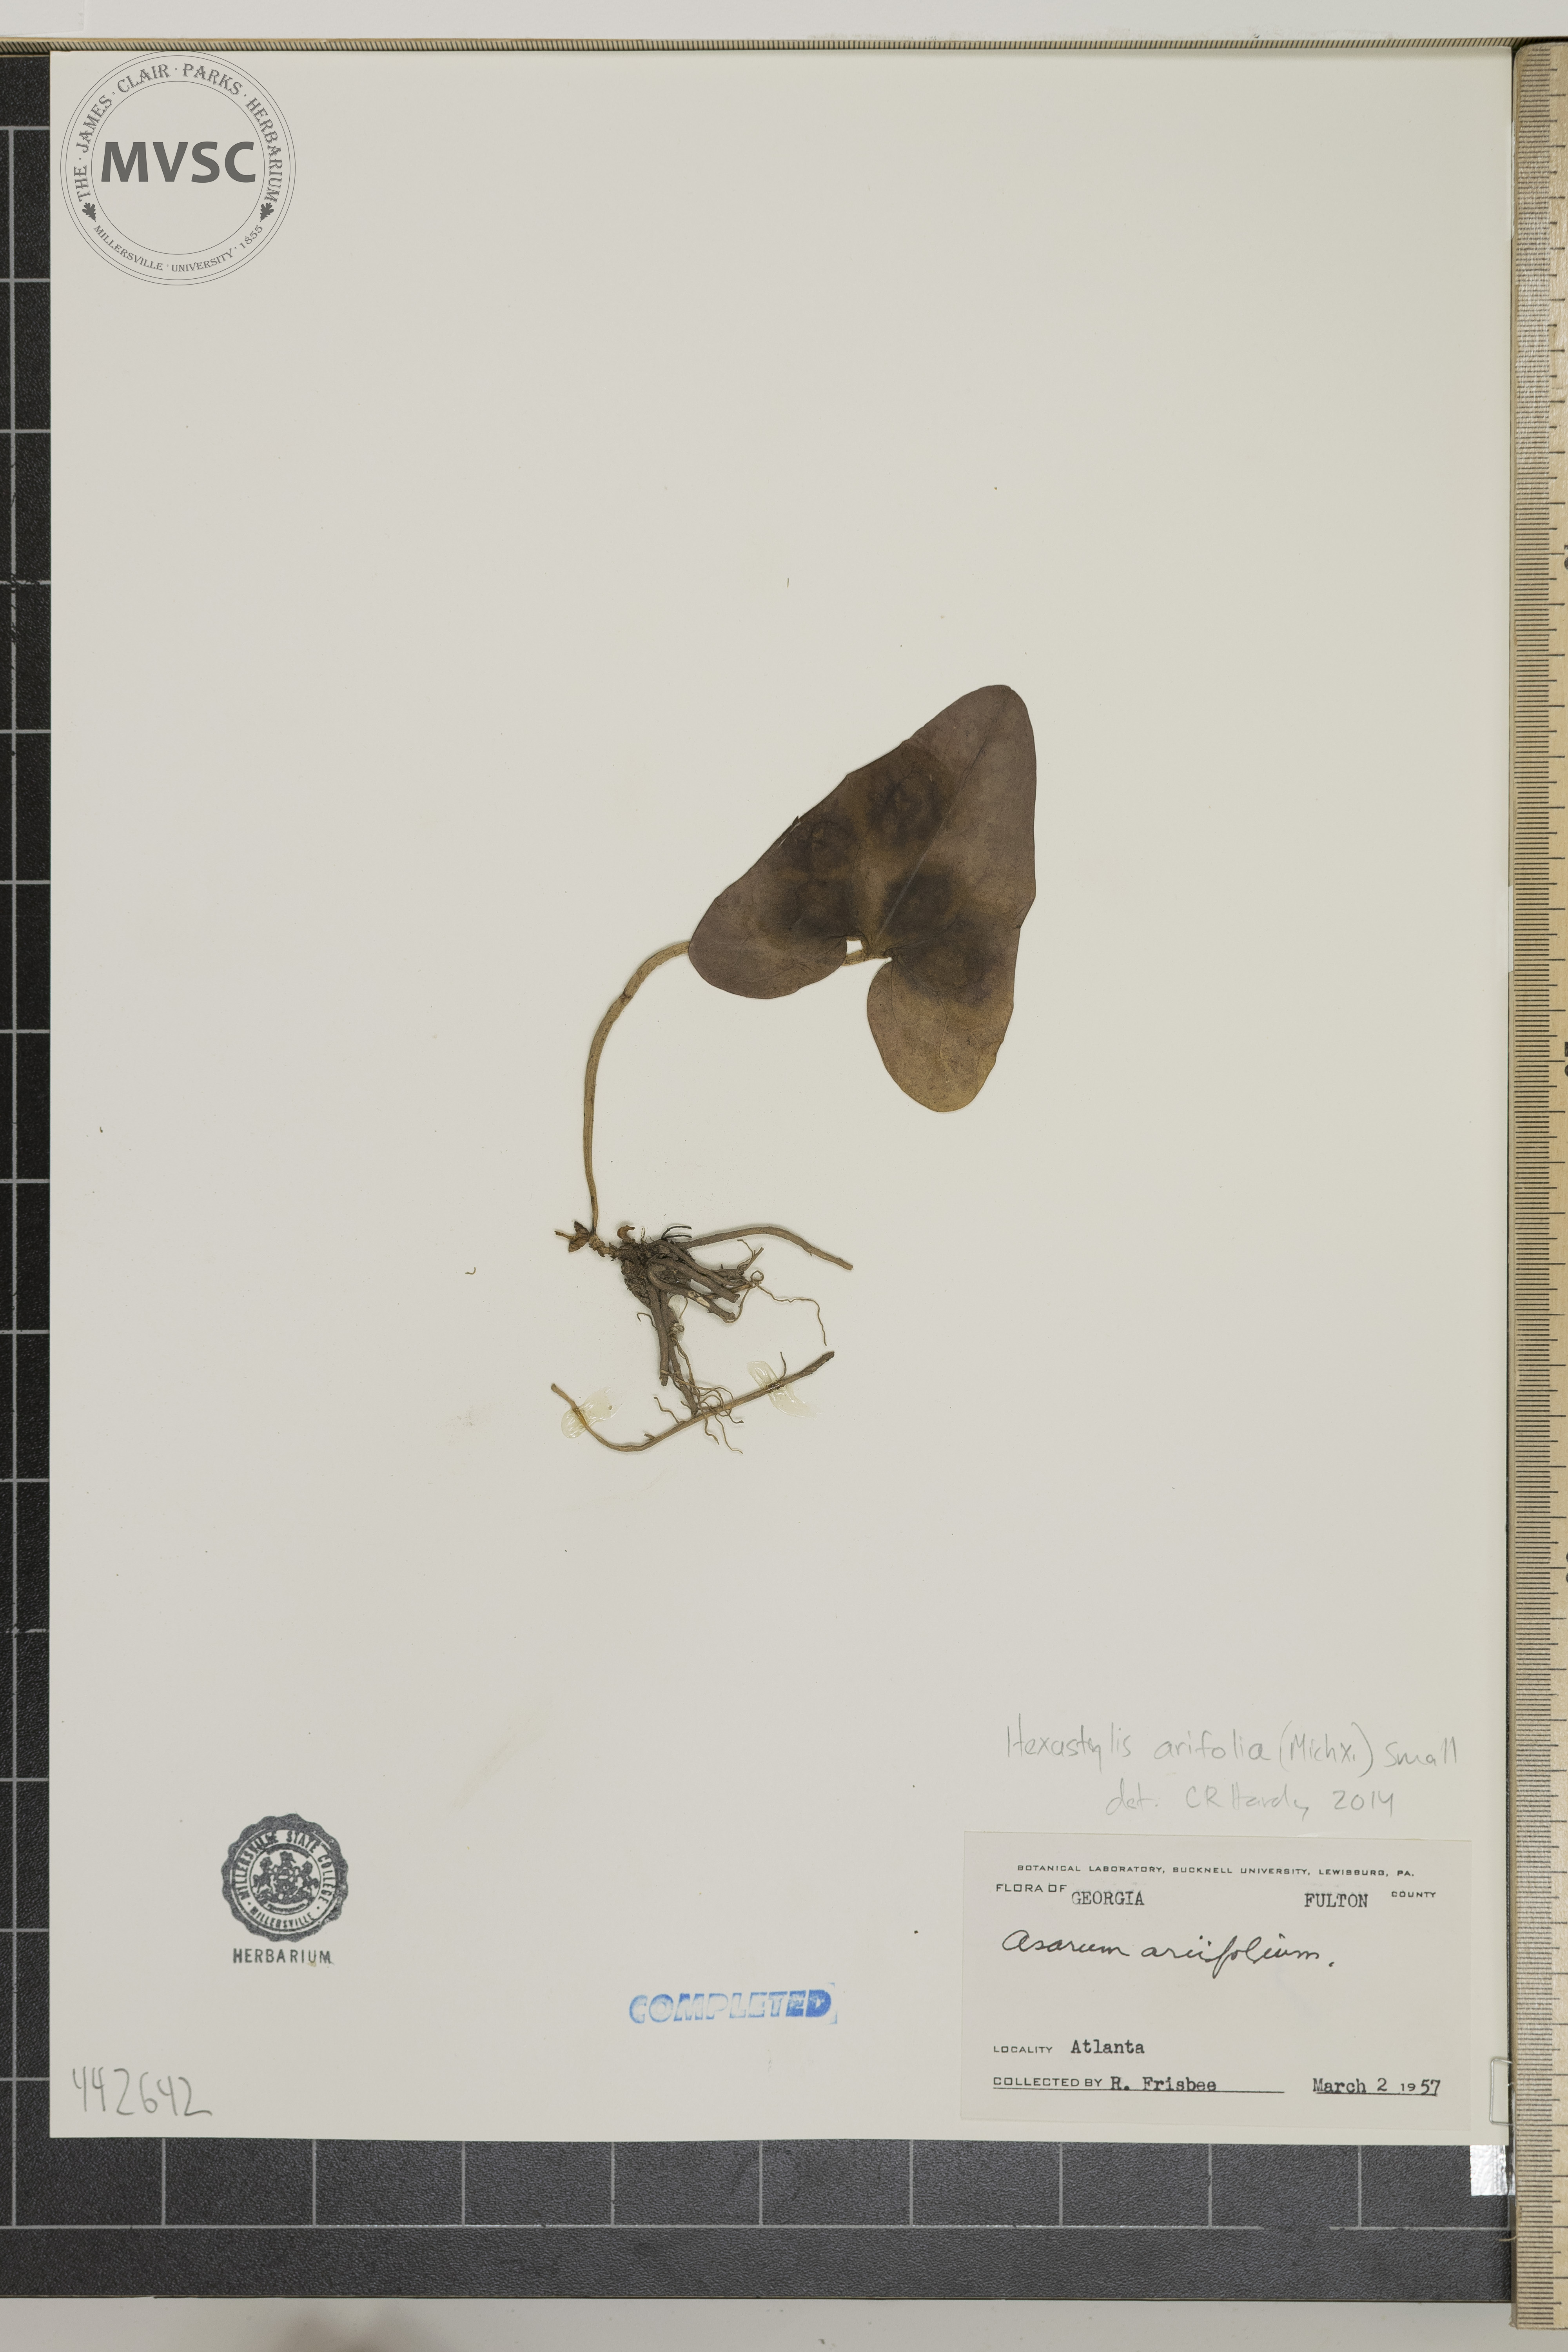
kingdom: Plantae
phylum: Tracheophyta
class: Magnoliopsida
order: Piperales
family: Aristolochiaceae
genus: Hexastylis
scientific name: Hexastylis arifolia
